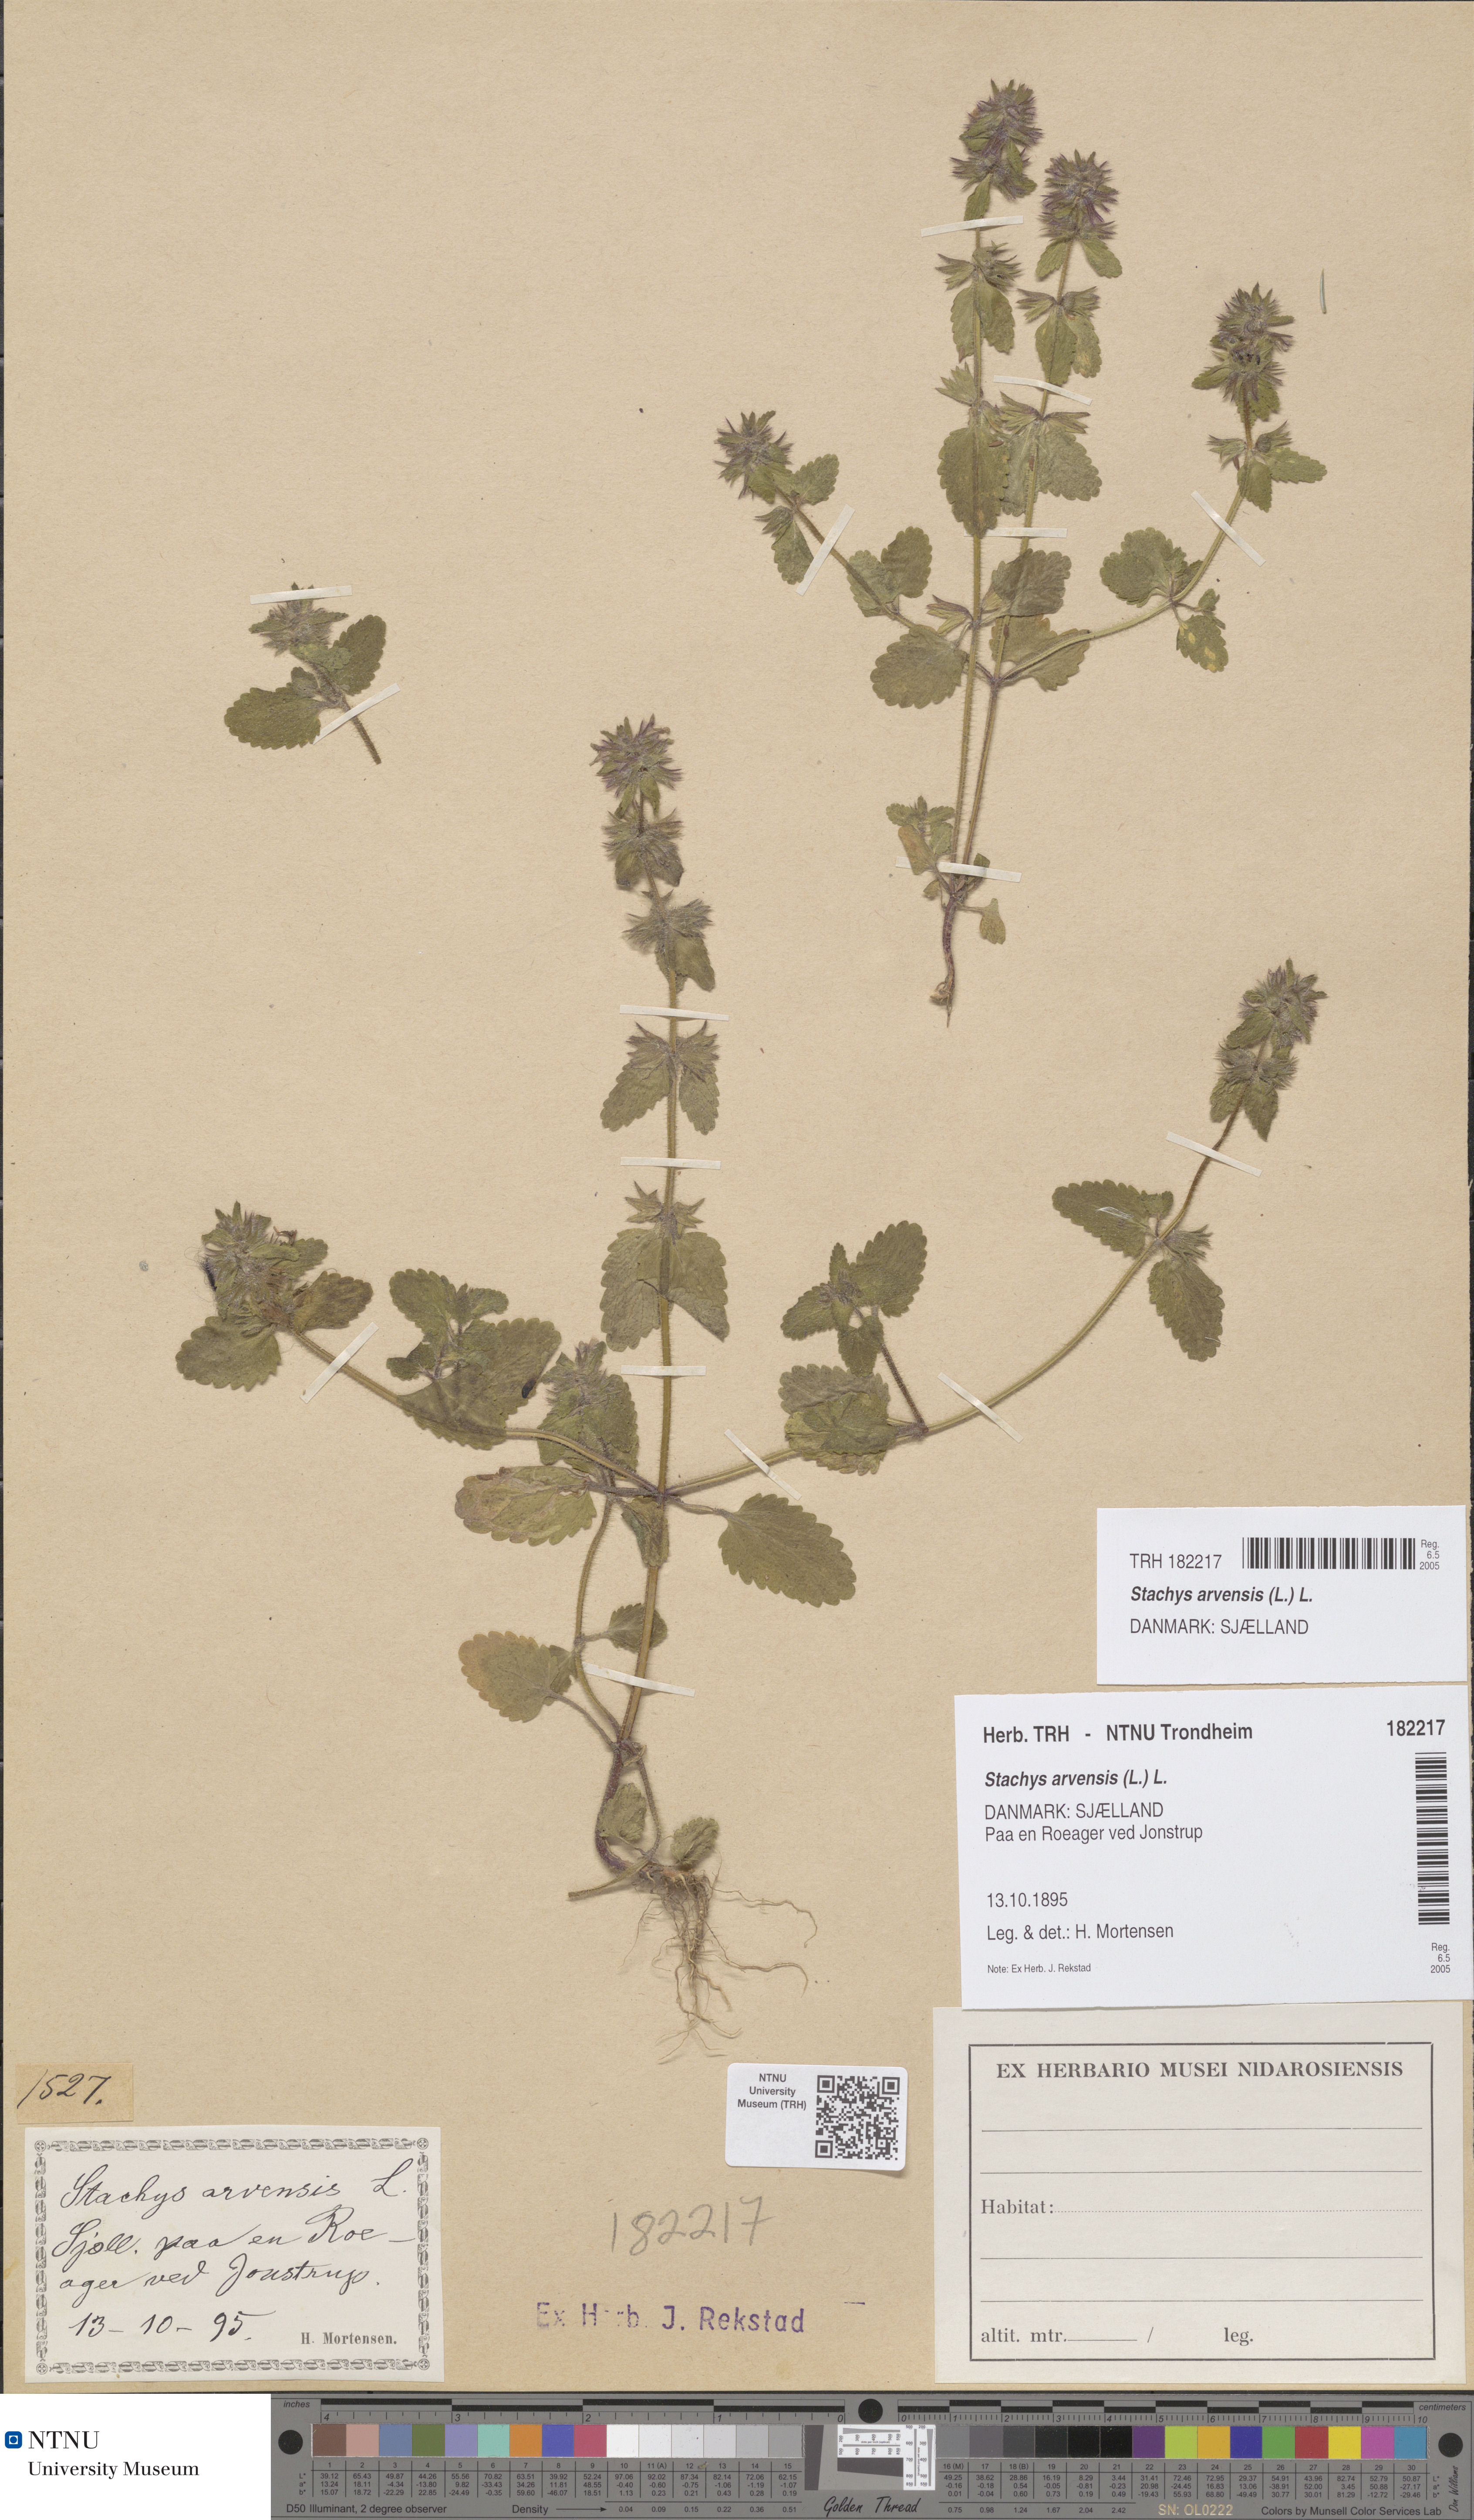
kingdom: Plantae
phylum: Tracheophyta
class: Magnoliopsida
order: Lamiales
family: Lamiaceae
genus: Stachys
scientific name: Stachys arvensis
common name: Field woundwort
